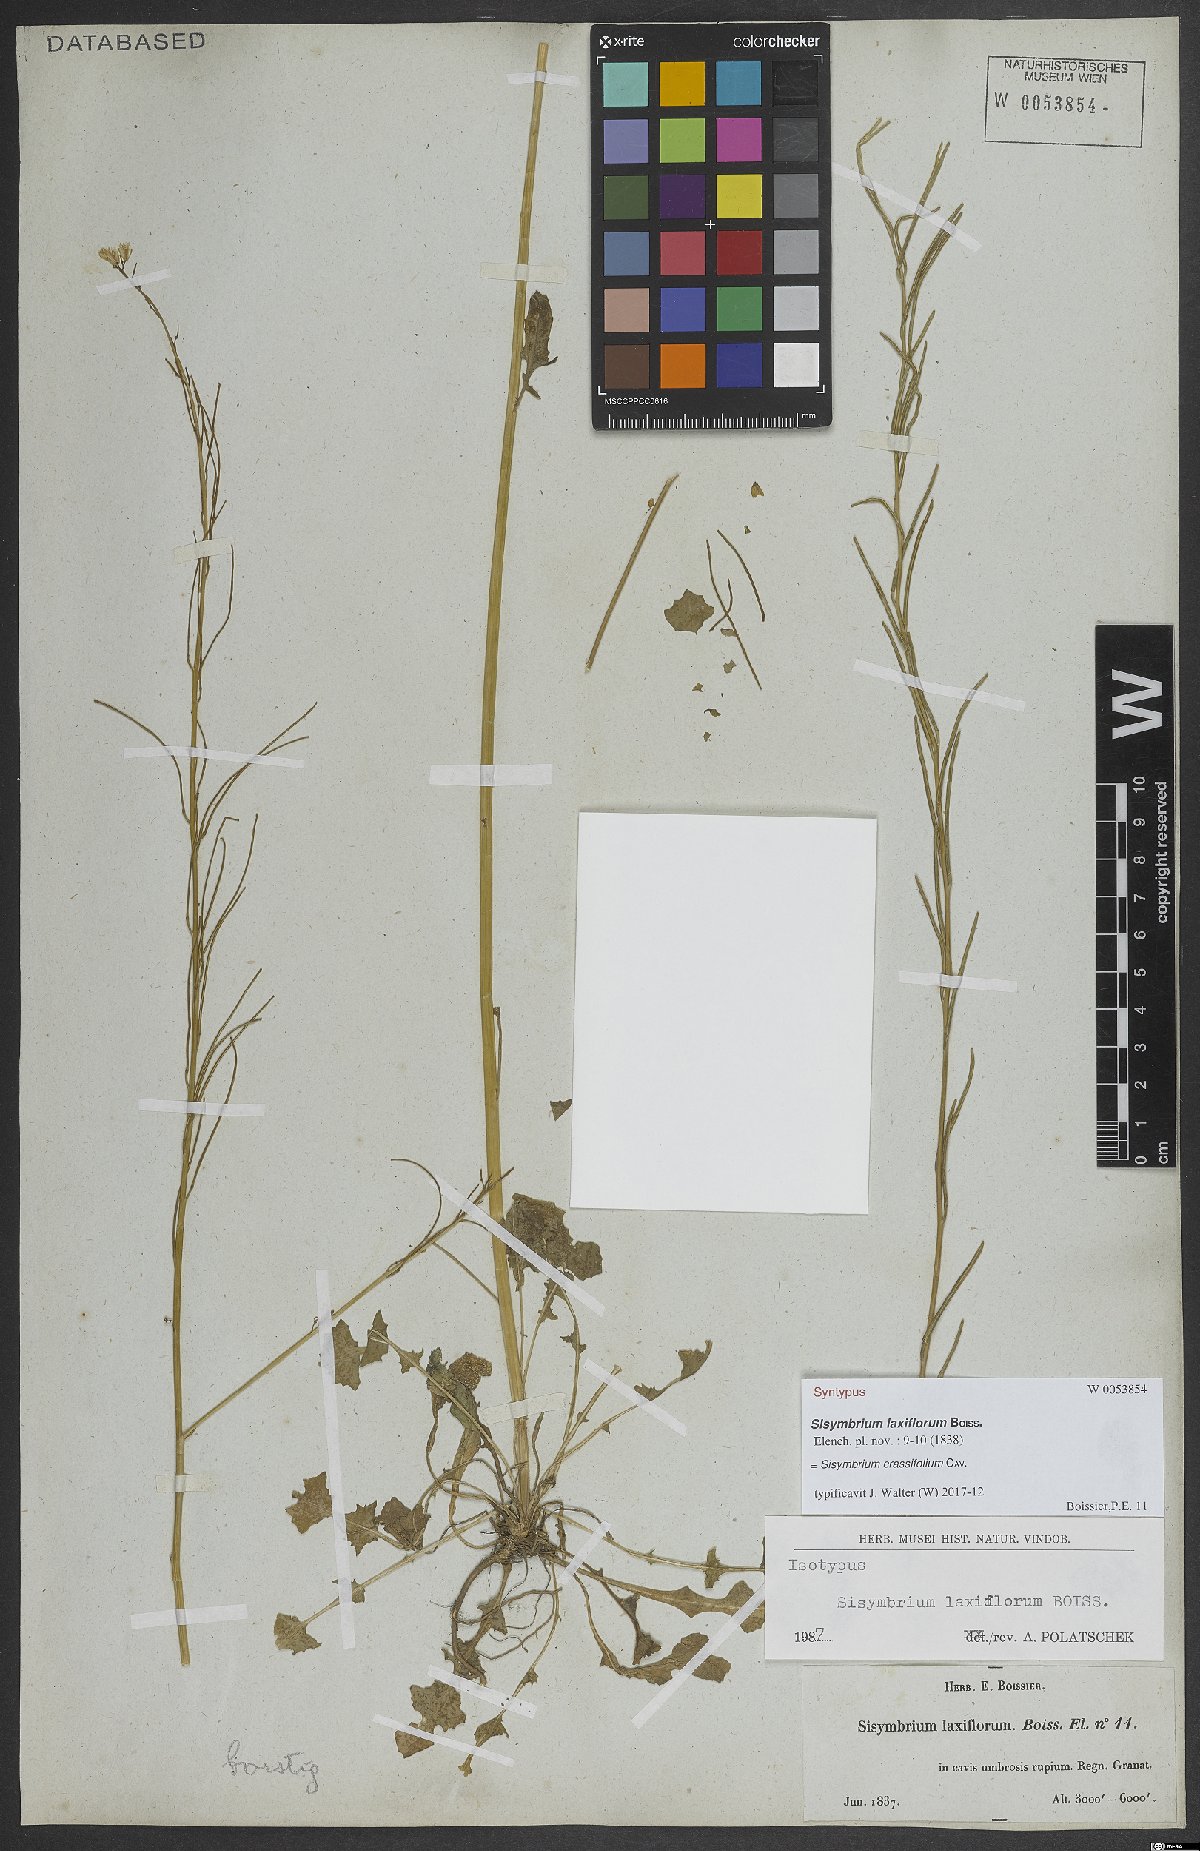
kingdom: Plantae
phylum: Tracheophyta
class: Magnoliopsida
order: Brassicales
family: Brassicaceae
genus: Sisymbrium
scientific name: Sisymbrium crassifolium
